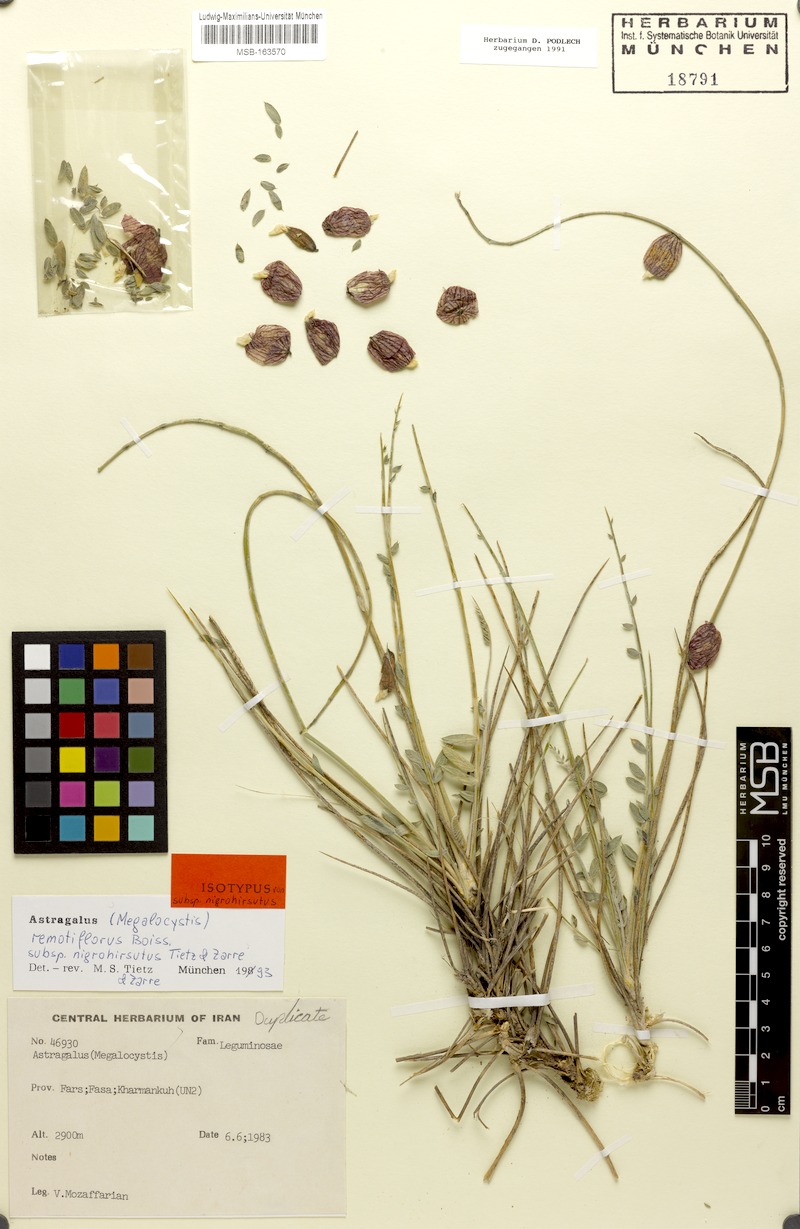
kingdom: Plantae
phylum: Tracheophyta
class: Magnoliopsida
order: Fabales
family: Fabaceae
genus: Astragalus
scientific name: Astragalus remotiflorus
